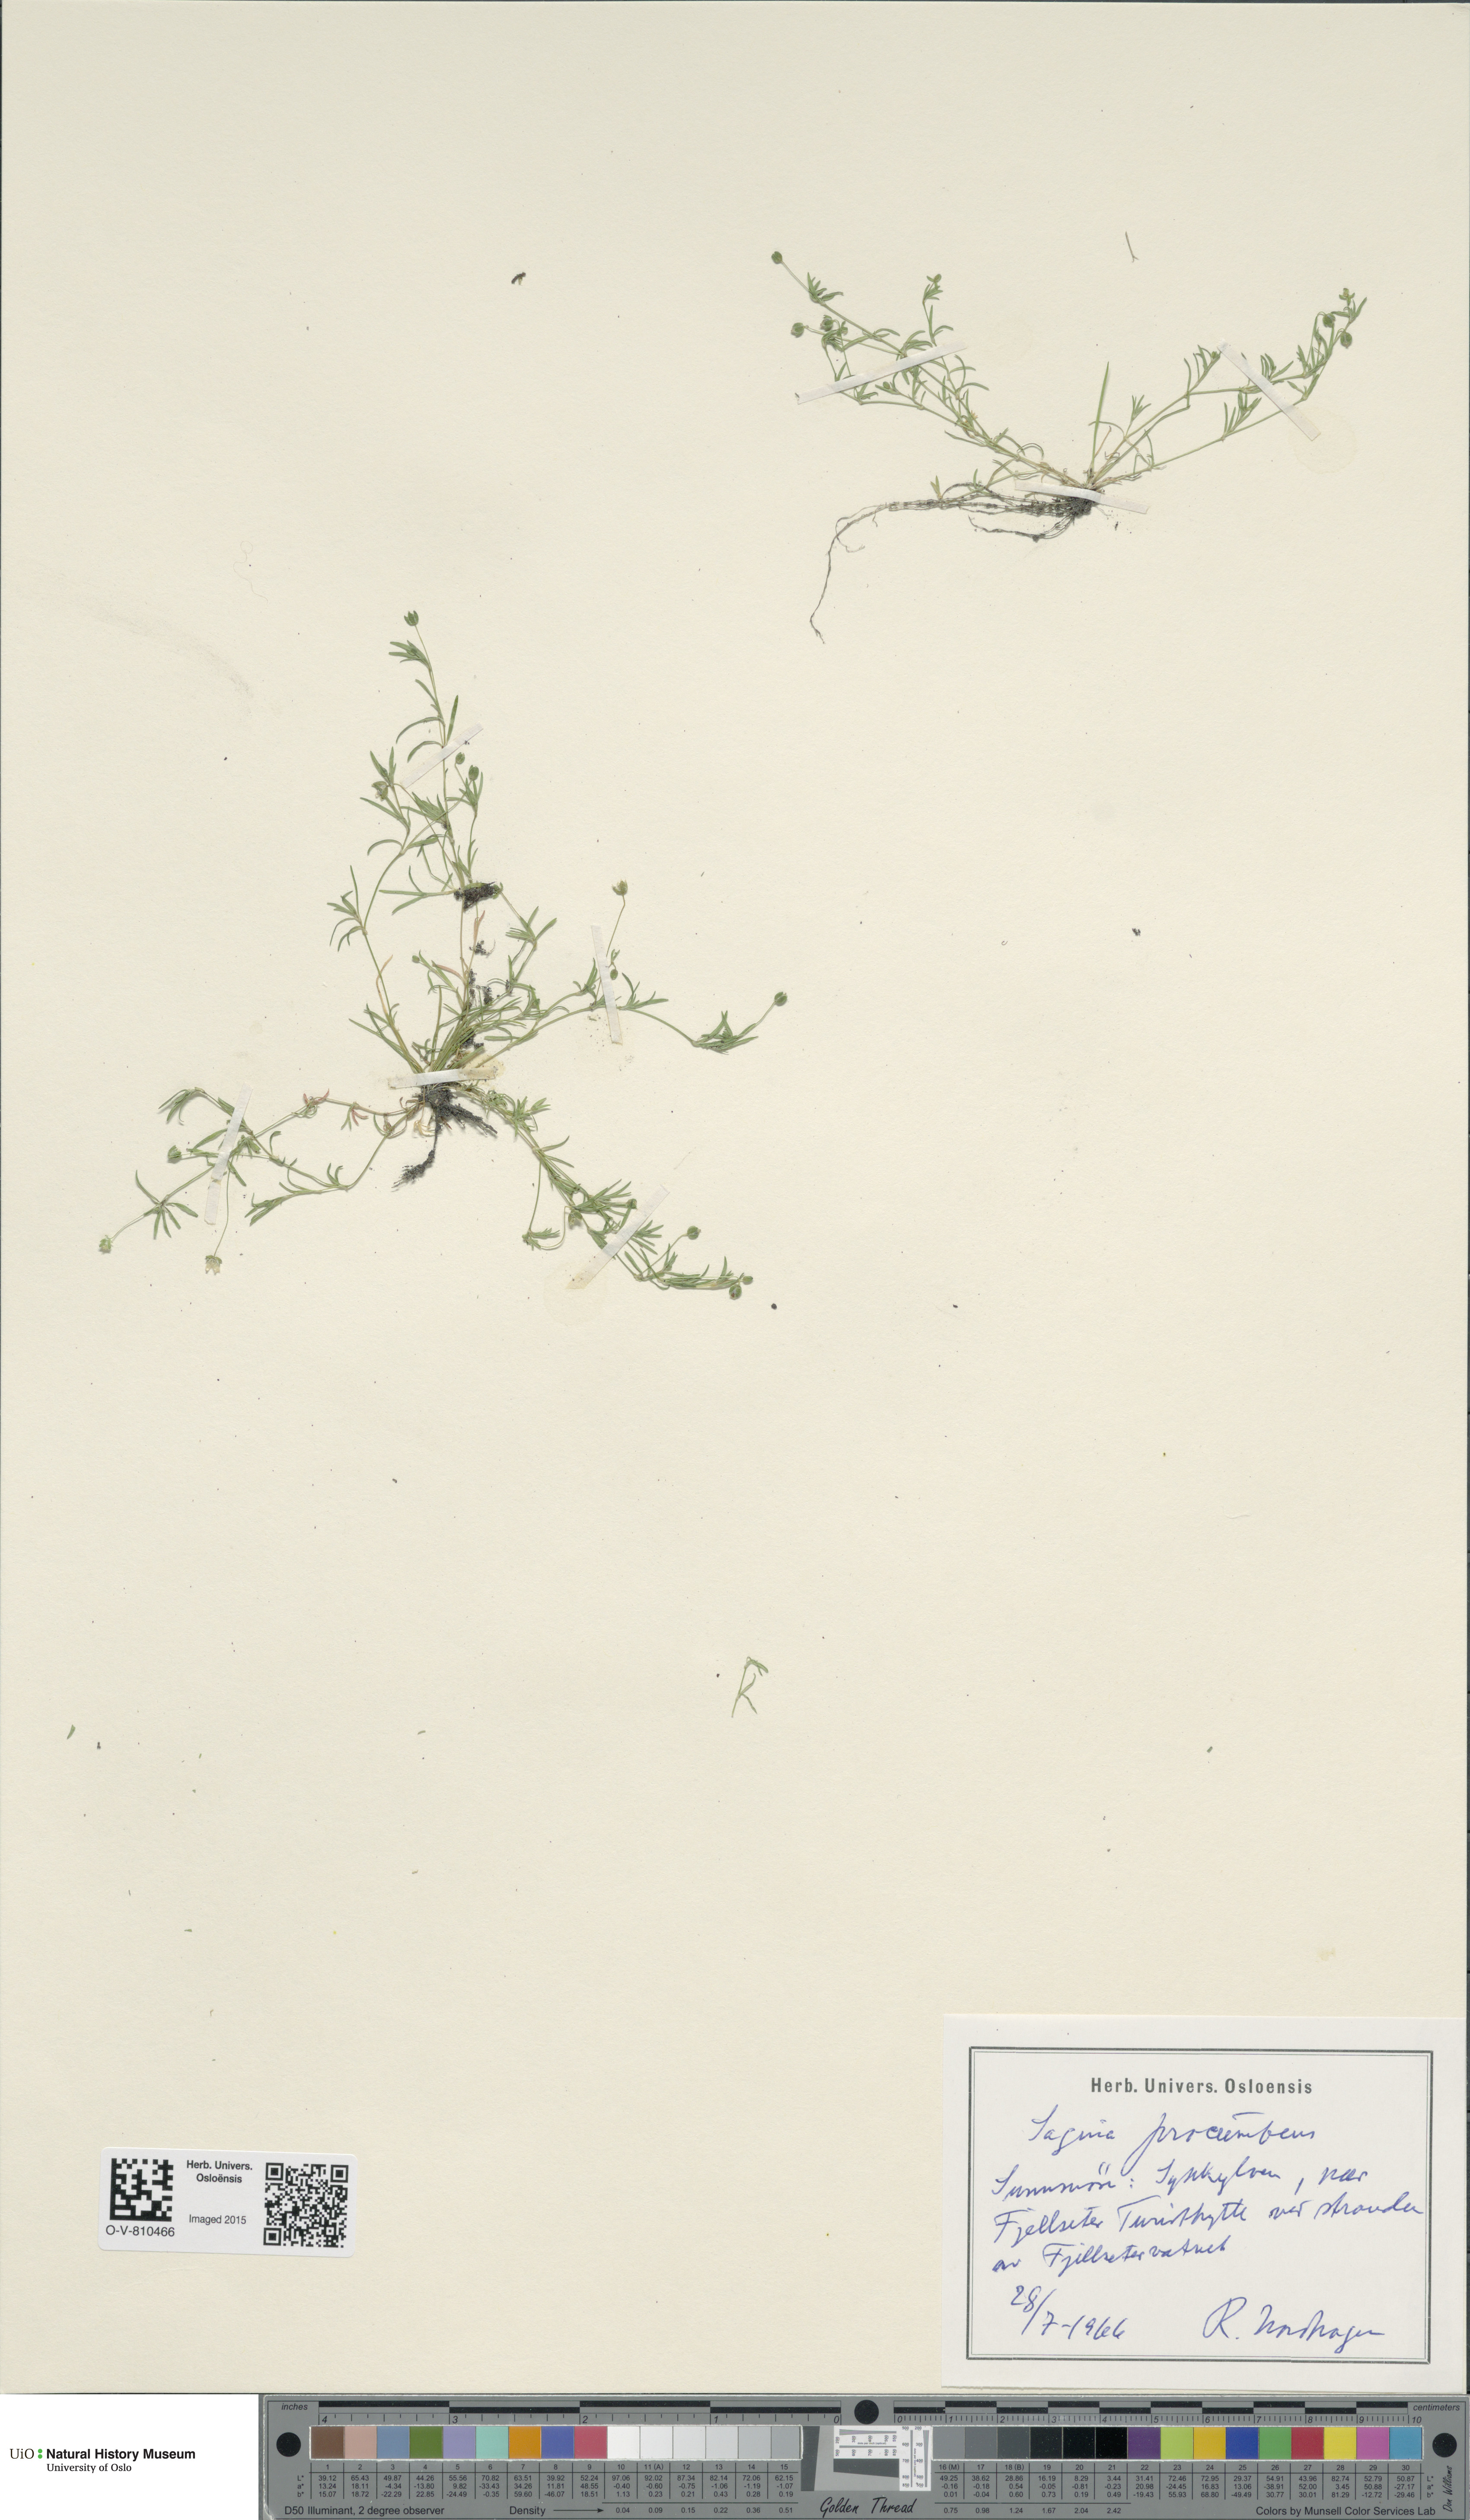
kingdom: Plantae
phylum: Tracheophyta
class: Magnoliopsida
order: Caryophyllales
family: Caryophyllaceae
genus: Sagina
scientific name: Sagina procumbens
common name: Procumbent pearlwort
